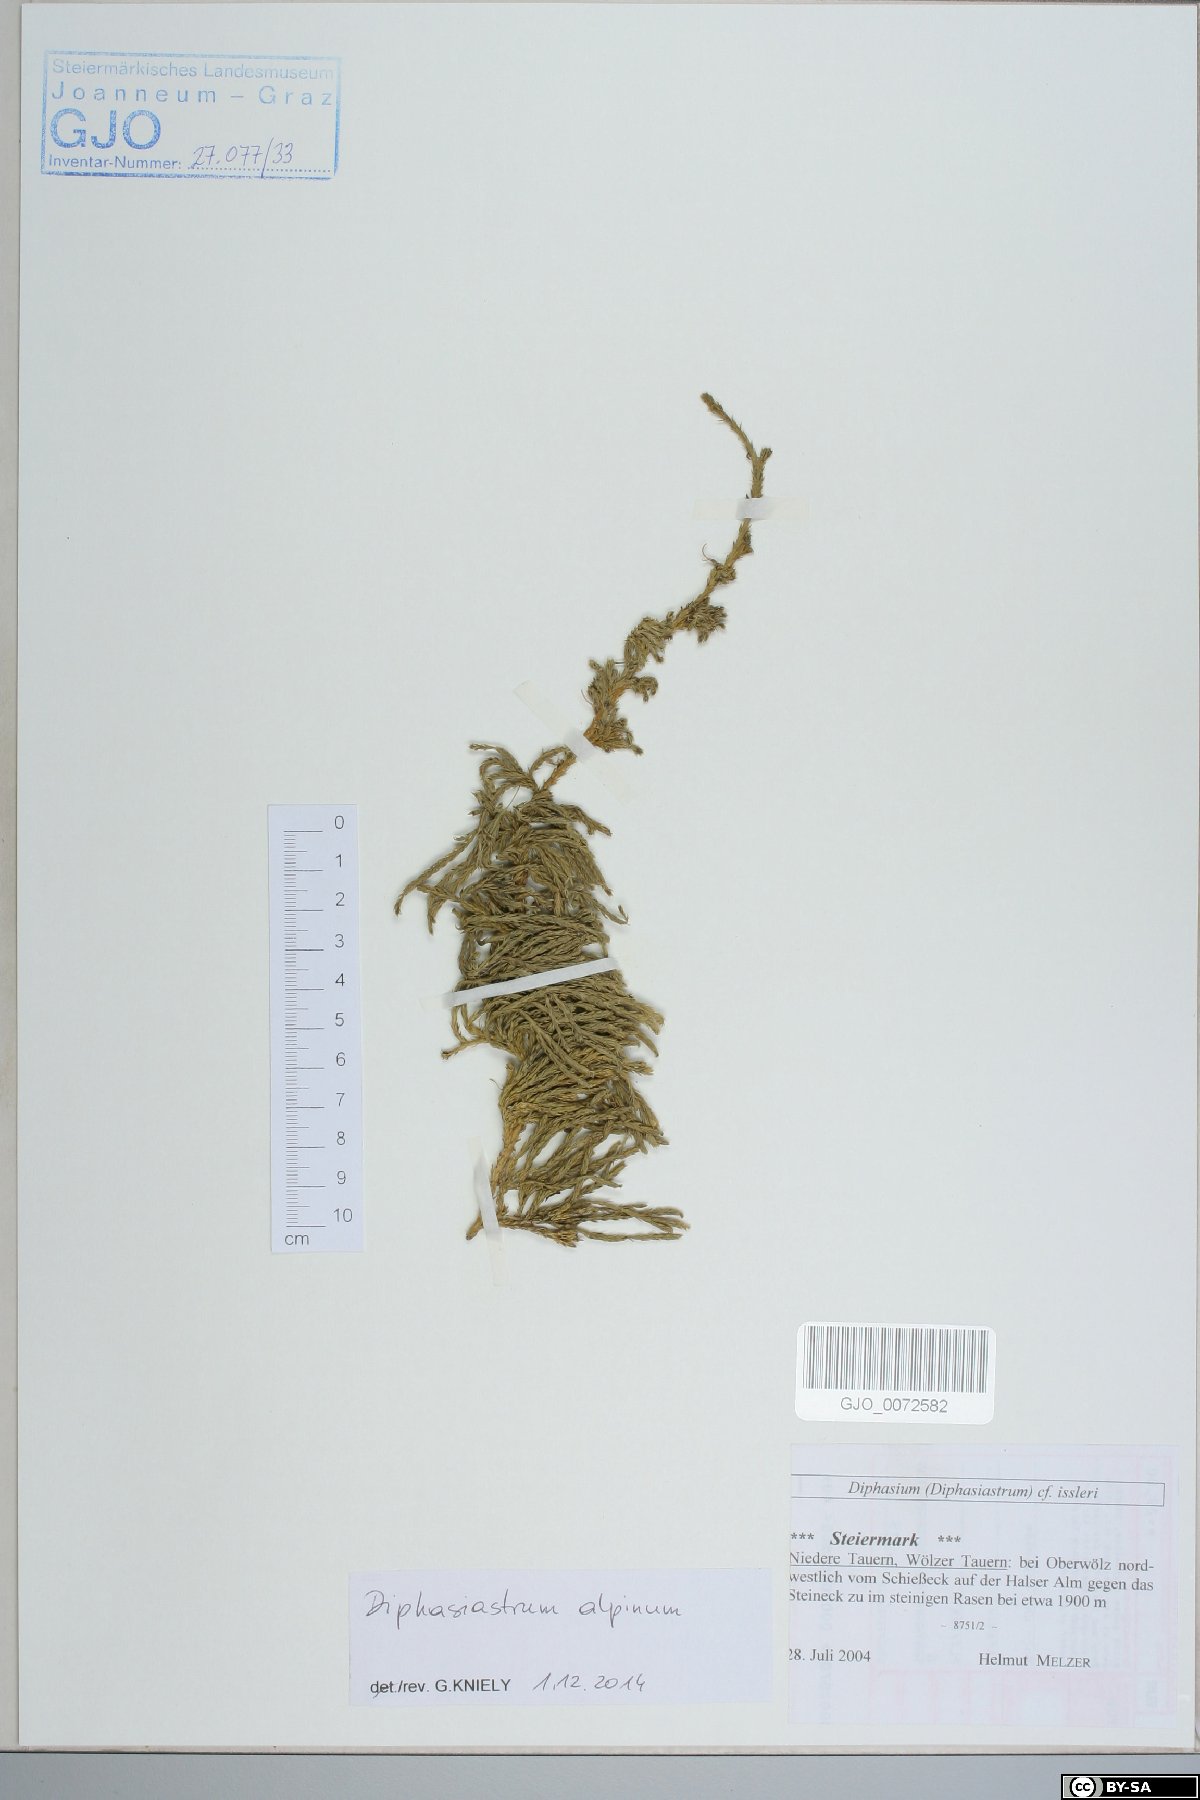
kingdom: Plantae
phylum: Tracheophyta
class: Lycopodiopsida
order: Lycopodiales
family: Lycopodiaceae
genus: Diphasiastrum
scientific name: Diphasiastrum alpinum
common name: Alpine clubmoss
